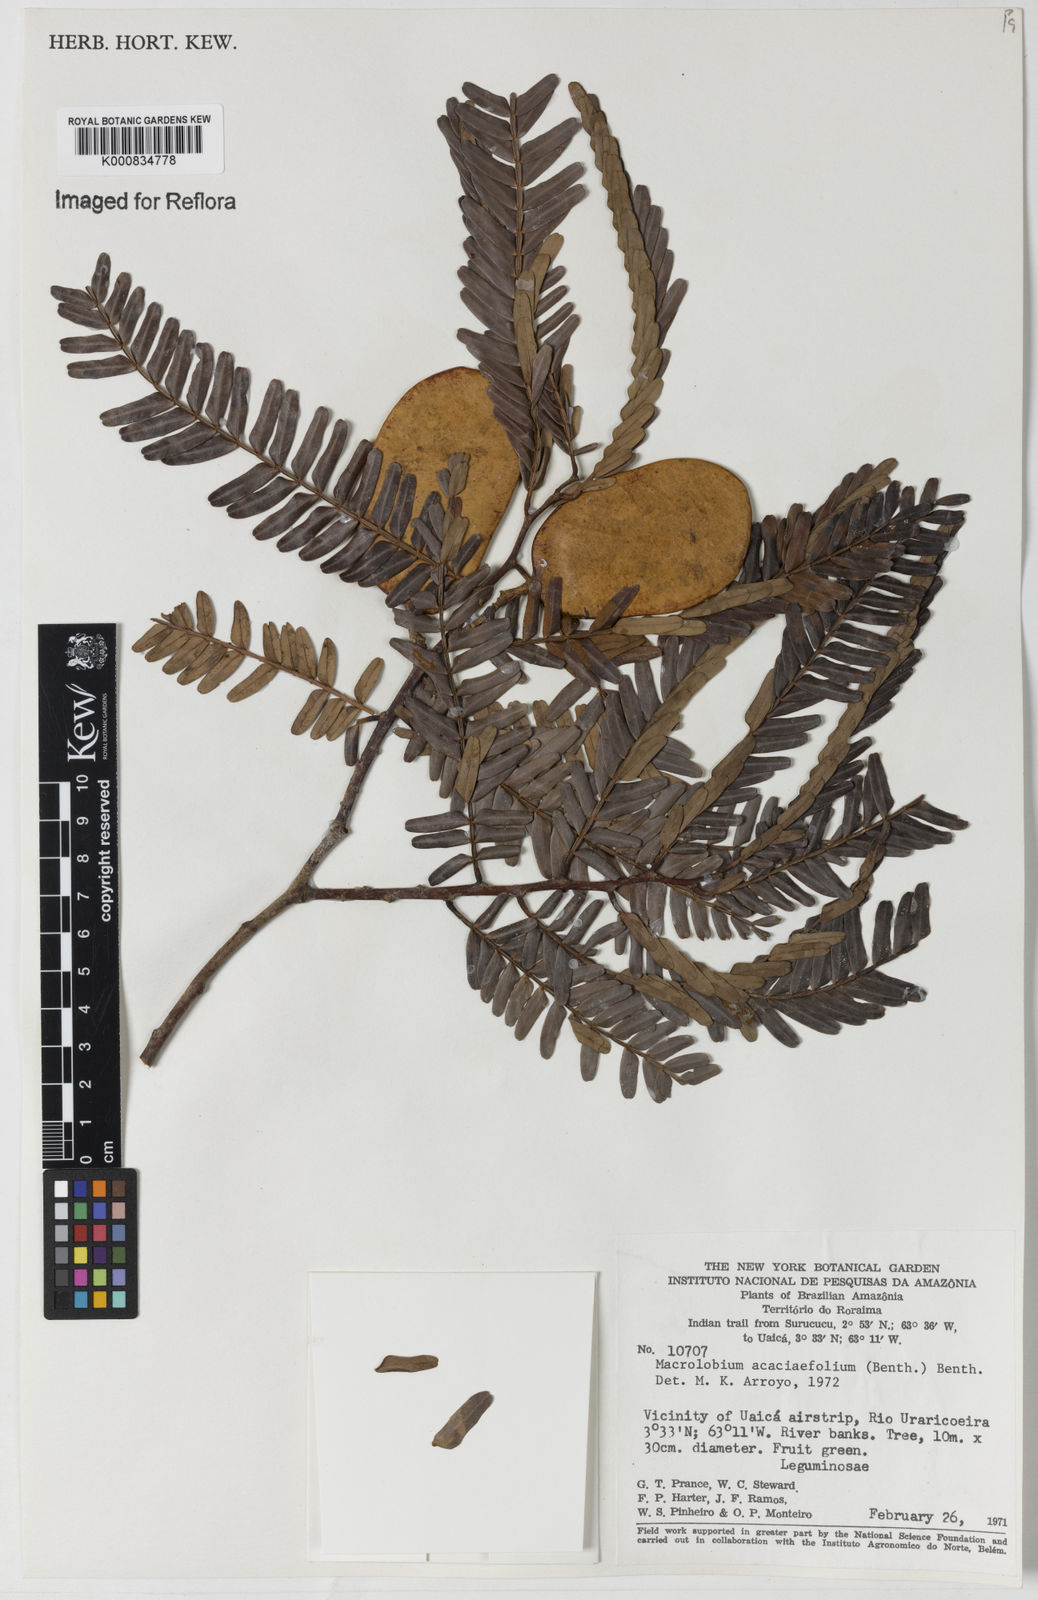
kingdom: Plantae
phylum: Tracheophyta
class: Magnoliopsida
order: Fabales
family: Fabaceae
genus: Macrolobium
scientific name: Macrolobium acaciifolium
